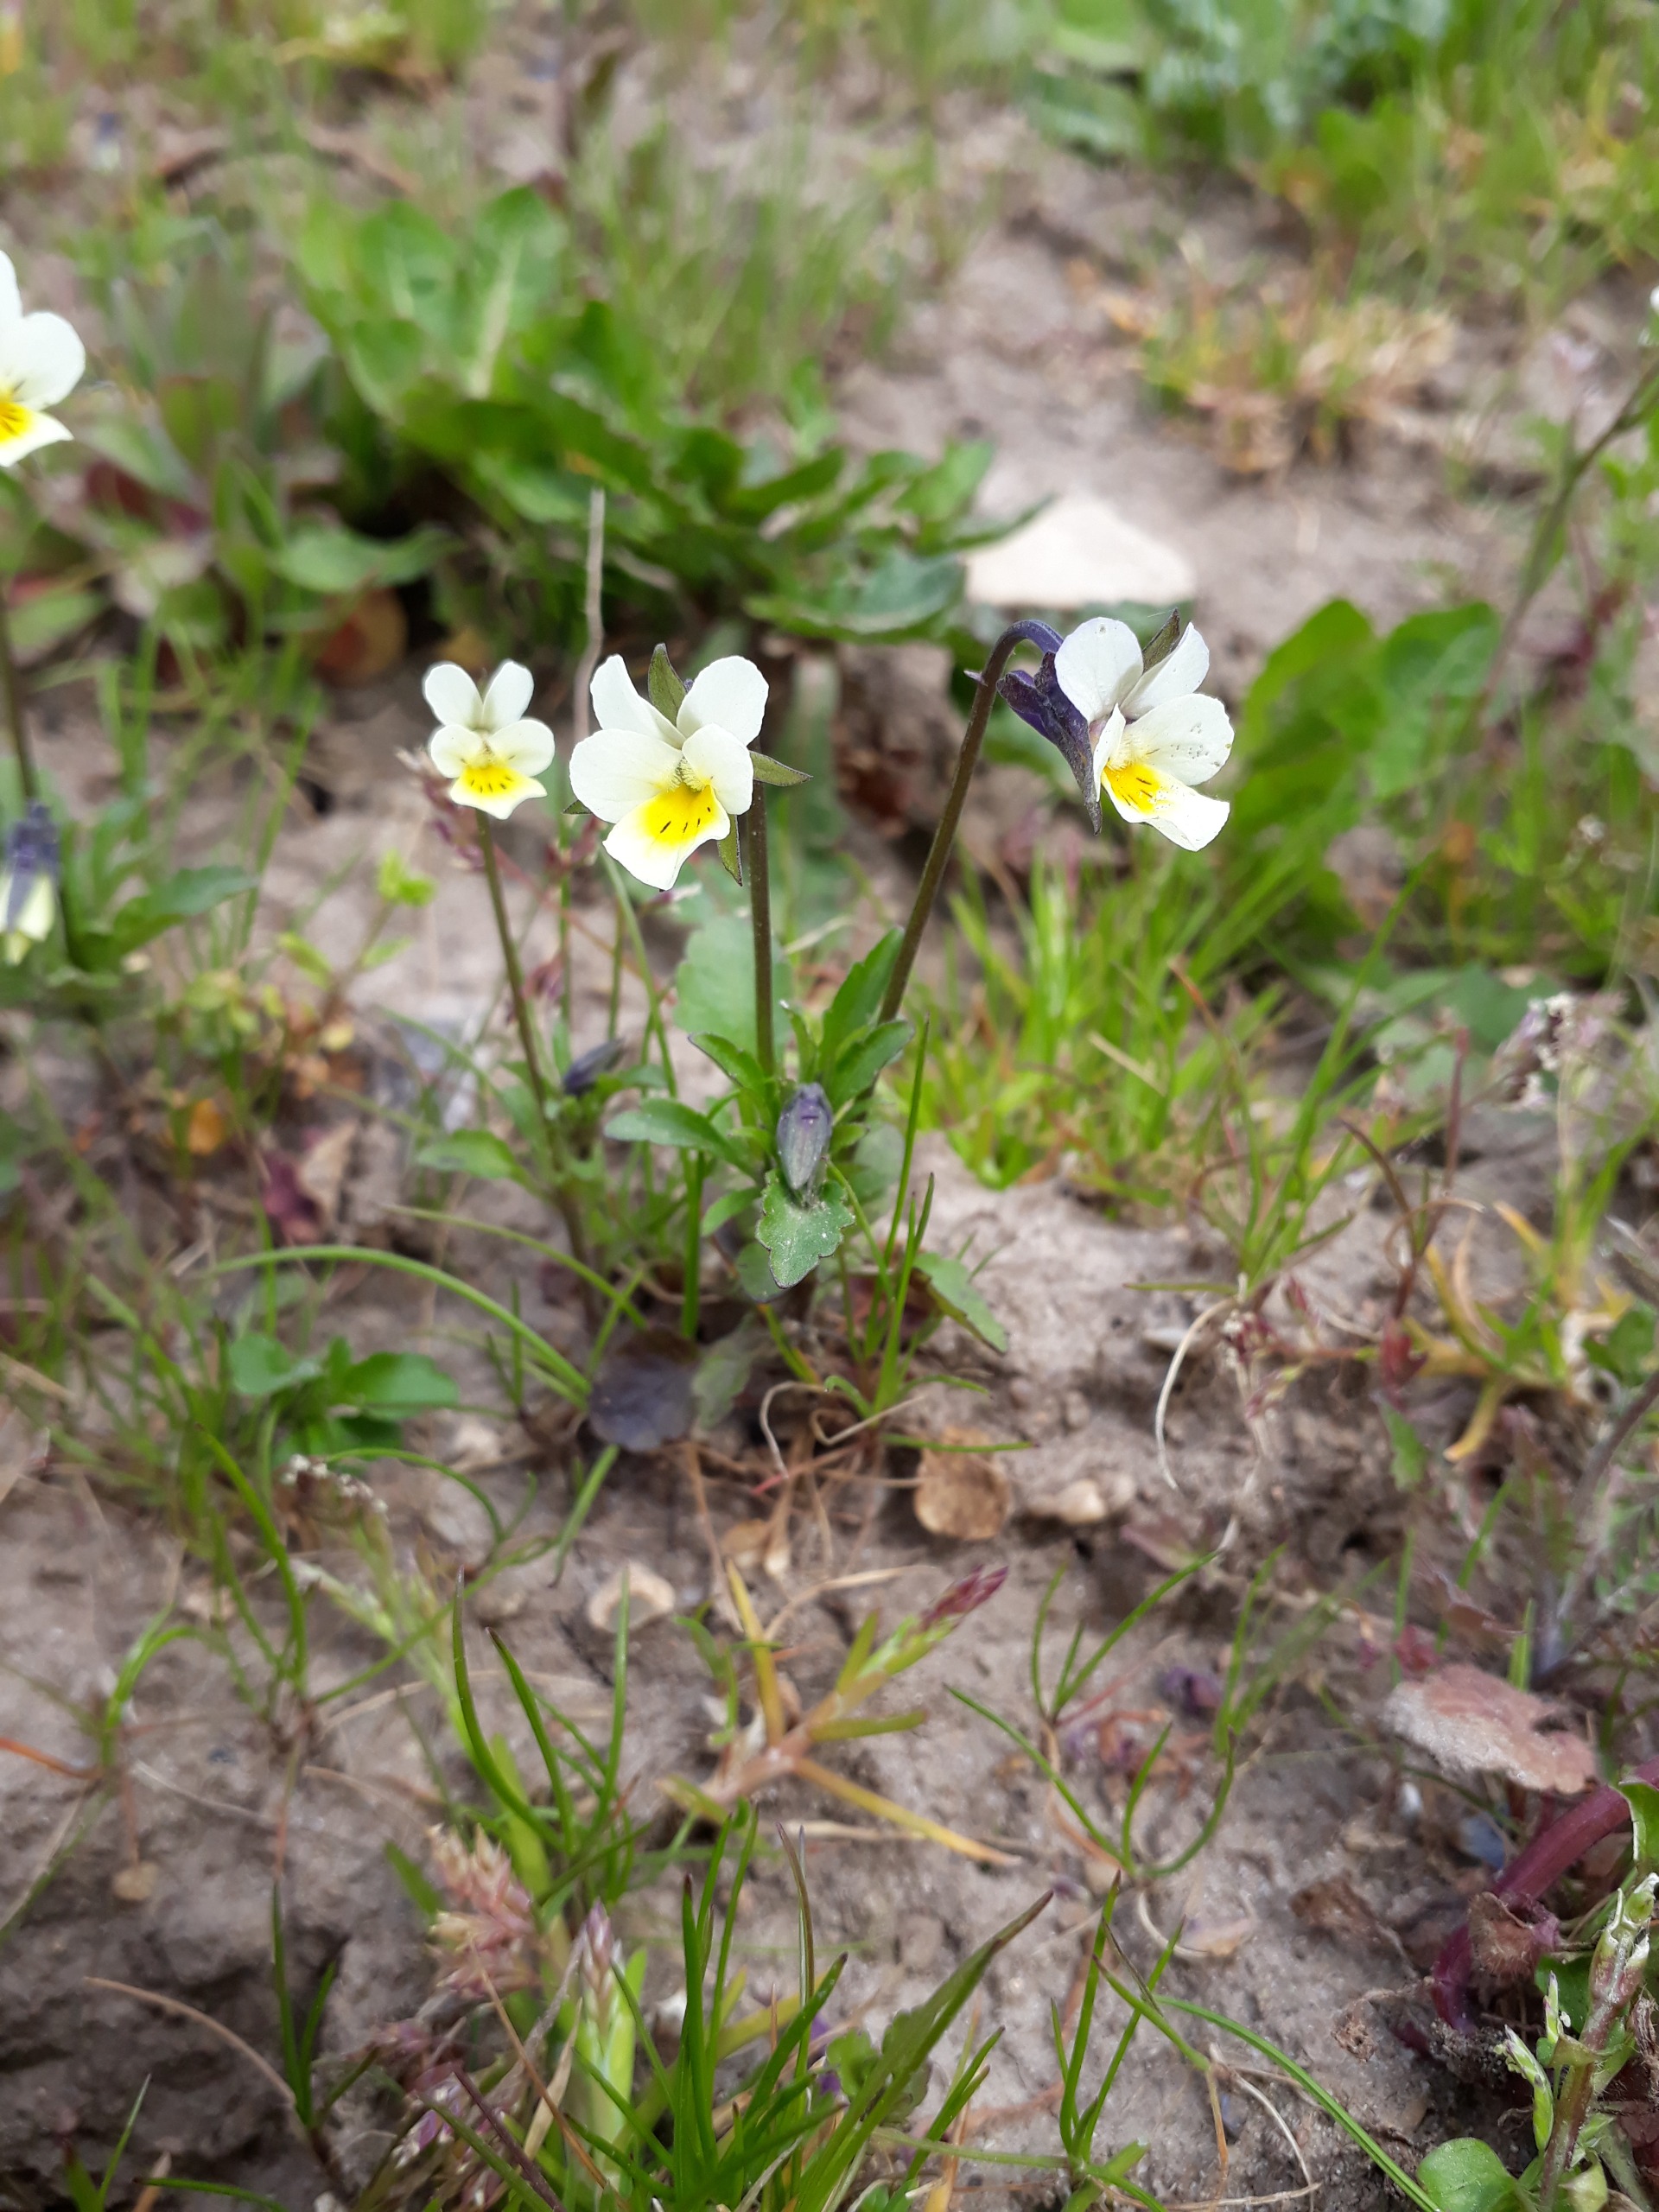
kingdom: Plantae
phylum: Tracheophyta
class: Magnoliopsida
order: Malpighiales
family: Violaceae
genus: Viola
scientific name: Viola arvensis
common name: Ager-stedmoderblomst
